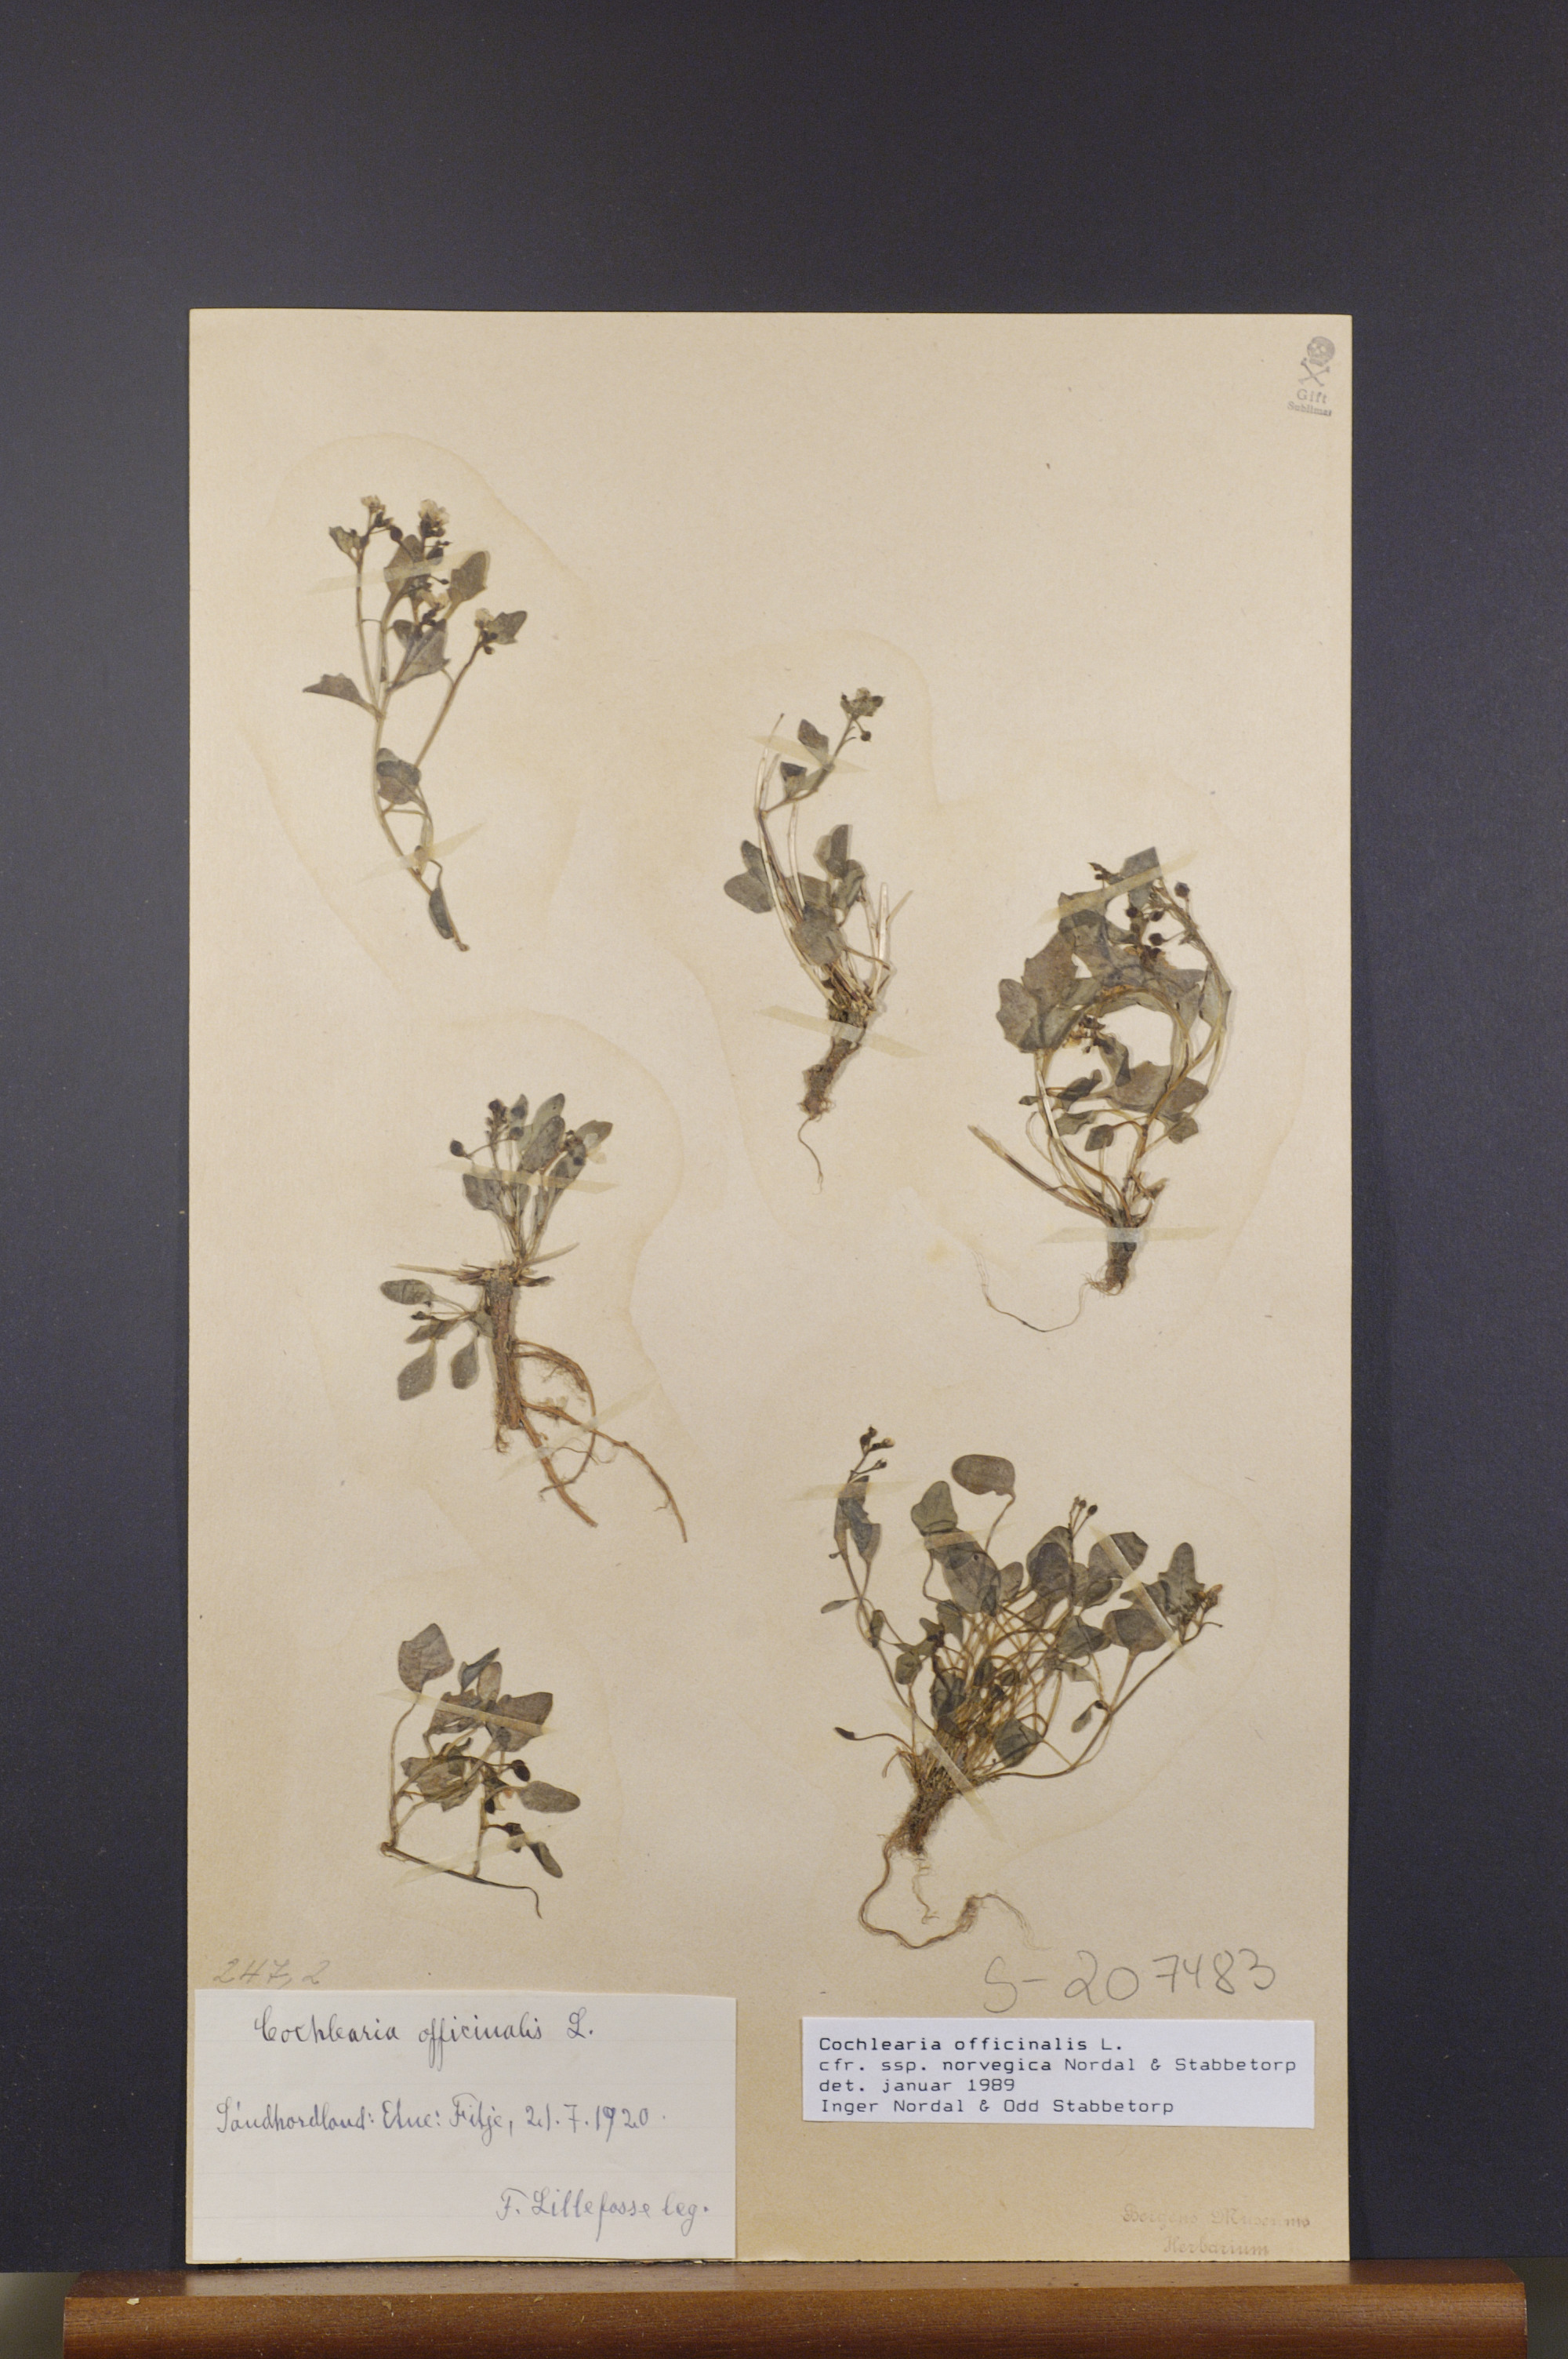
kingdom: Plantae
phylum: Tracheophyta
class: Magnoliopsida
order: Brassicales
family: Brassicaceae
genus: Cochlearia
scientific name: Cochlearia officinalis
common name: Scurvy-grass
